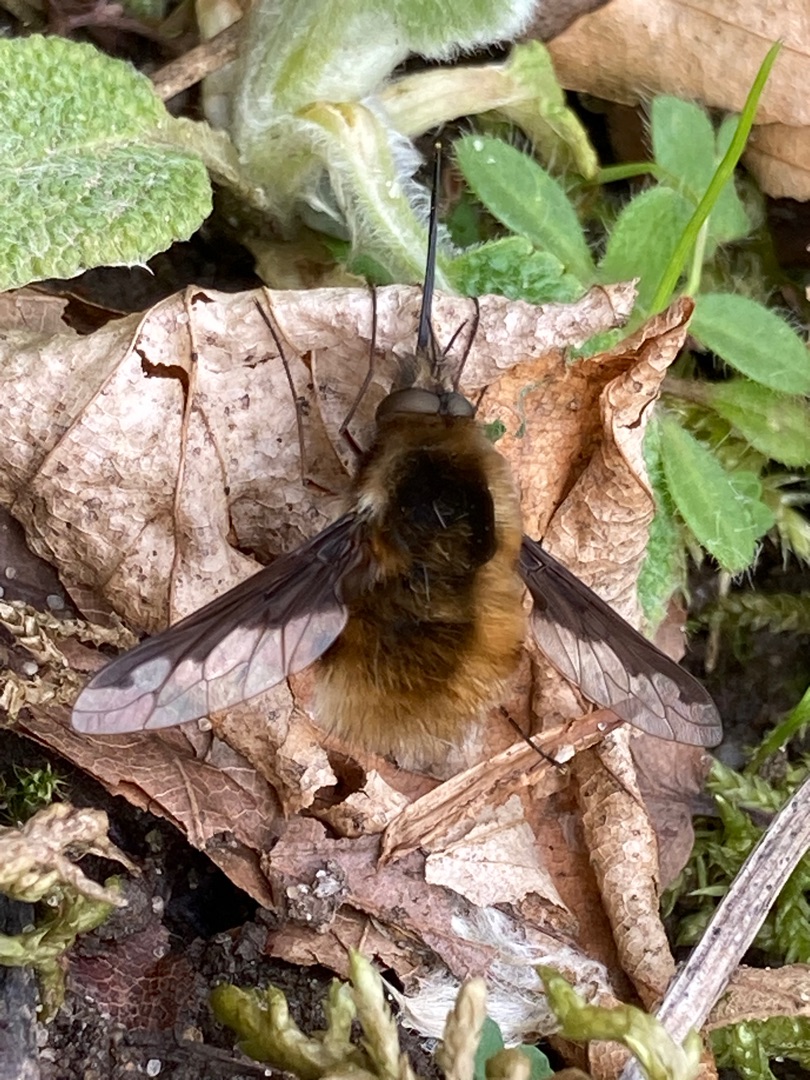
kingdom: Animalia
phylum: Arthropoda
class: Insecta
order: Diptera
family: Bombyliidae
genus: Bombylius
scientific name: Bombylius major
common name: Stor humleflue
